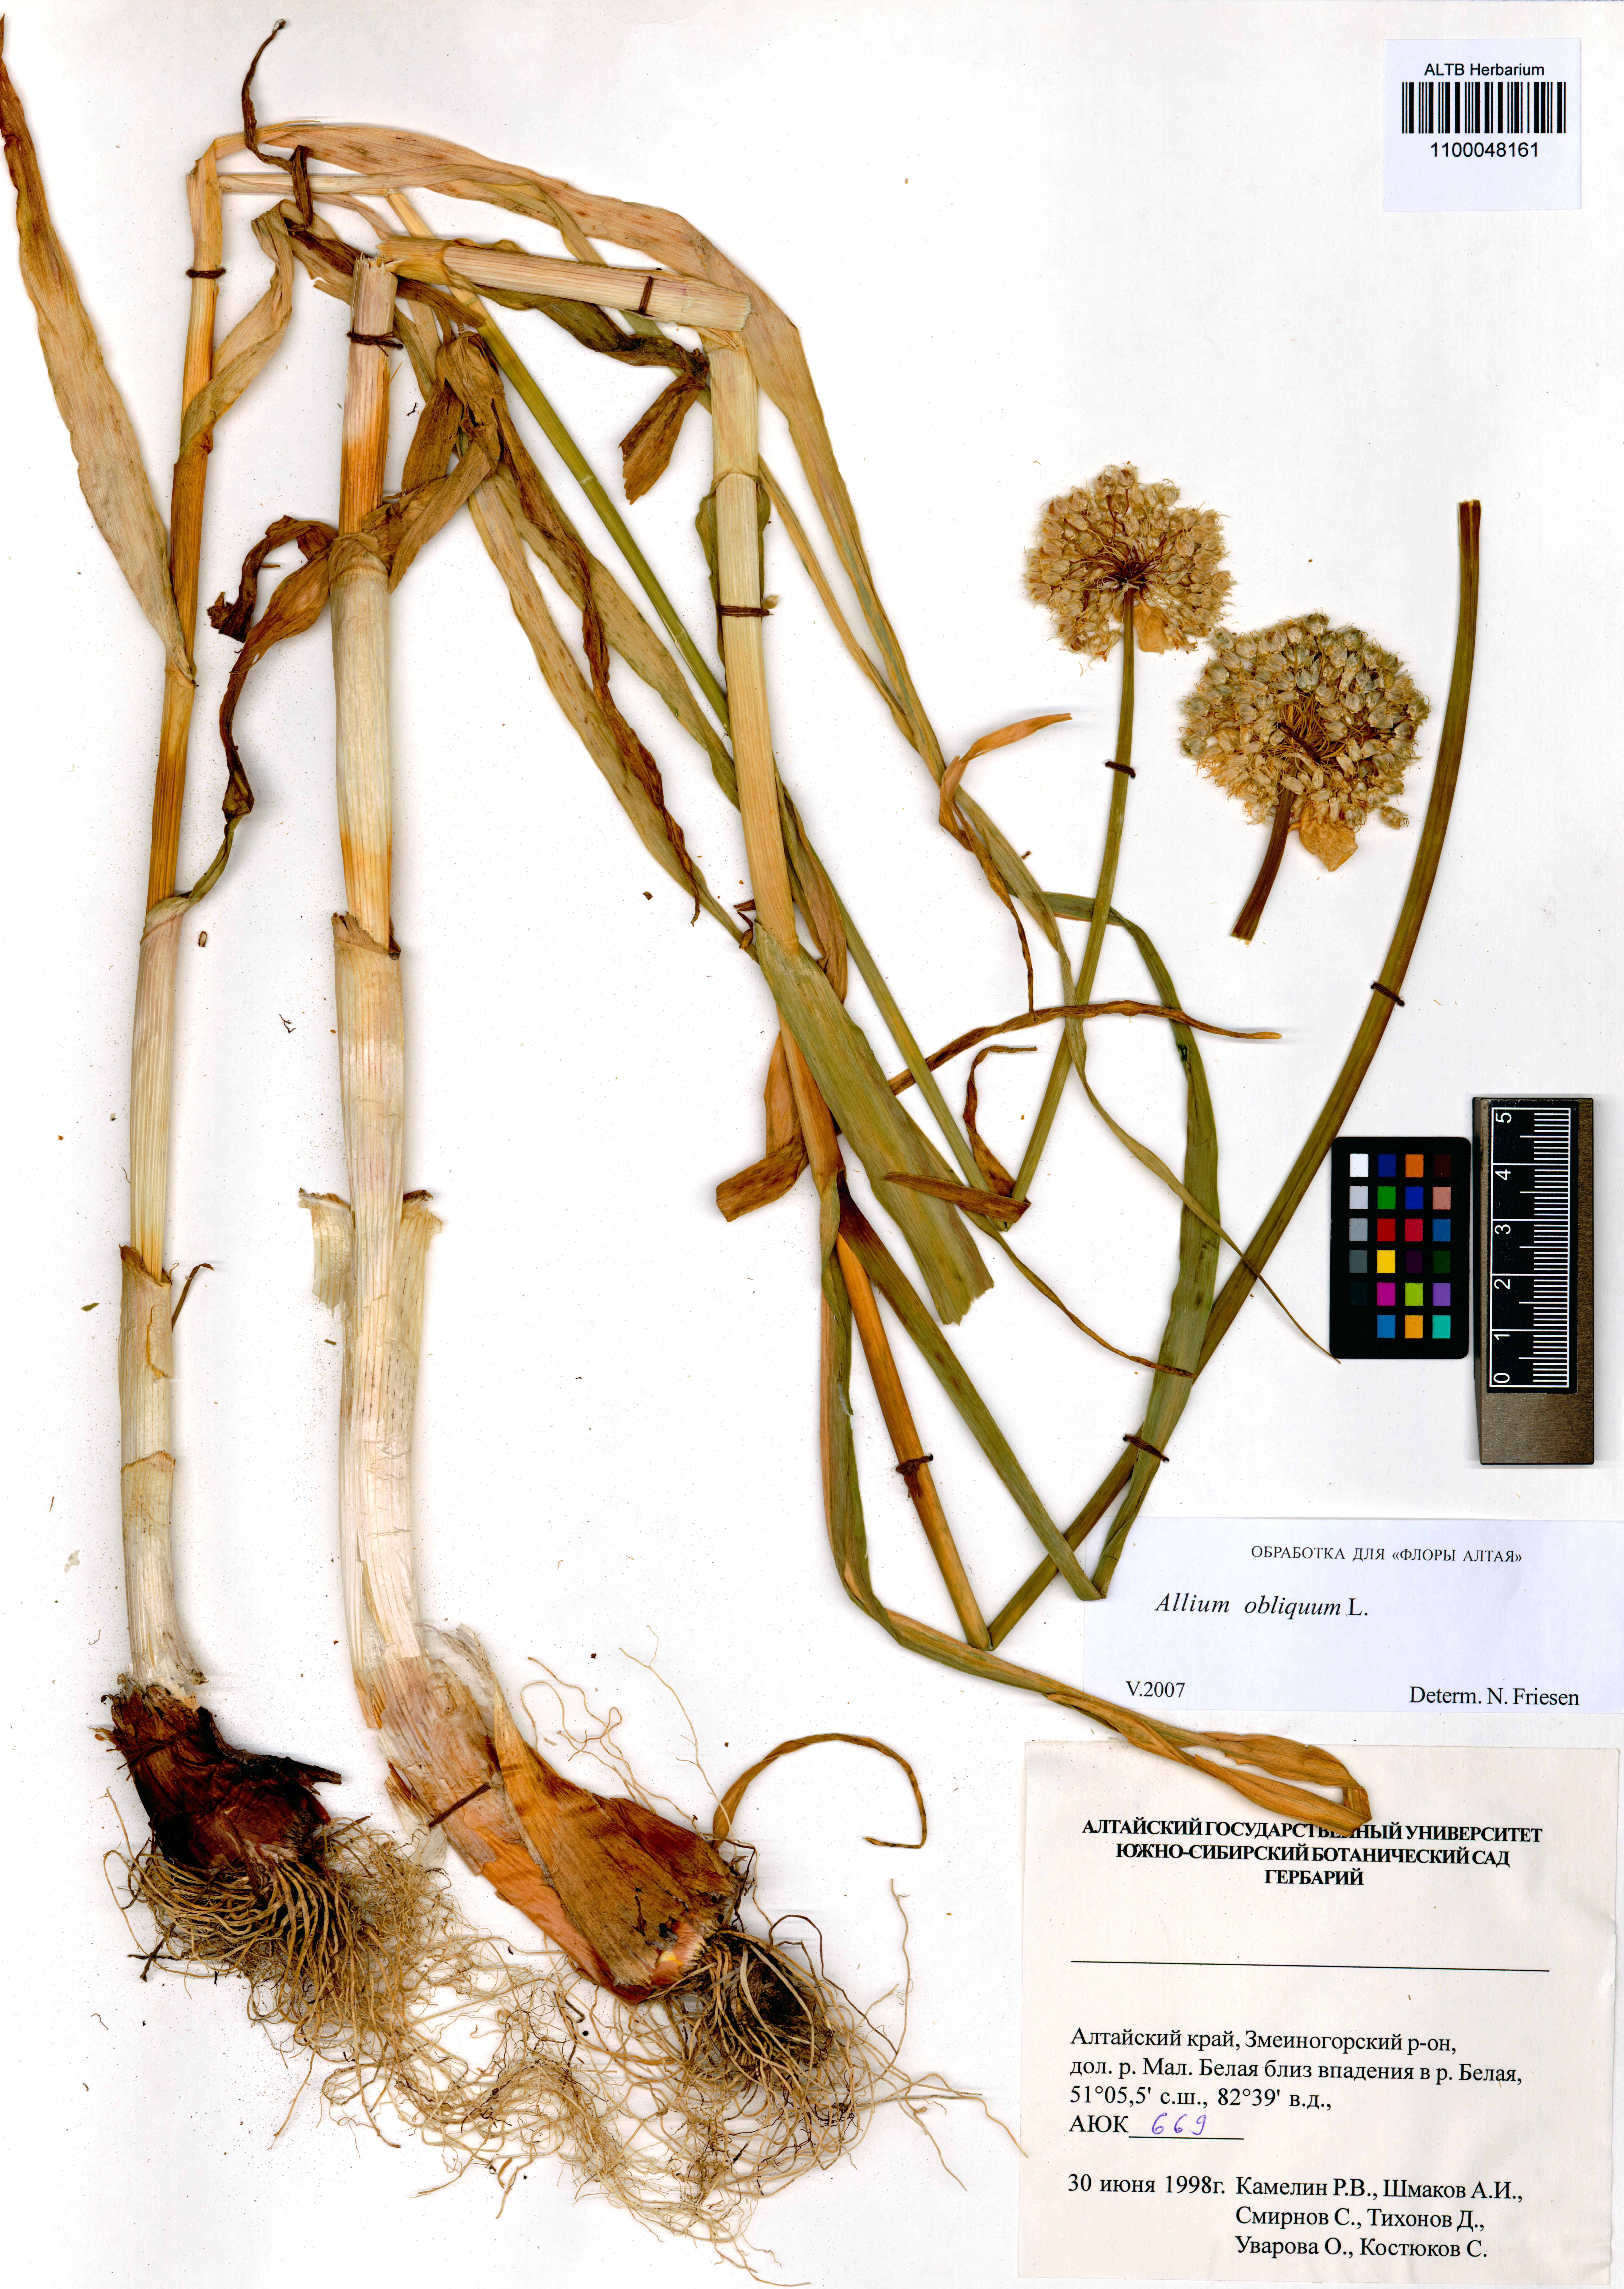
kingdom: Plantae
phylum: Tracheophyta
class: Liliopsida
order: Asparagales
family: Amaryllidaceae
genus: Allium
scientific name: Allium obliquum
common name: Oblique onion
